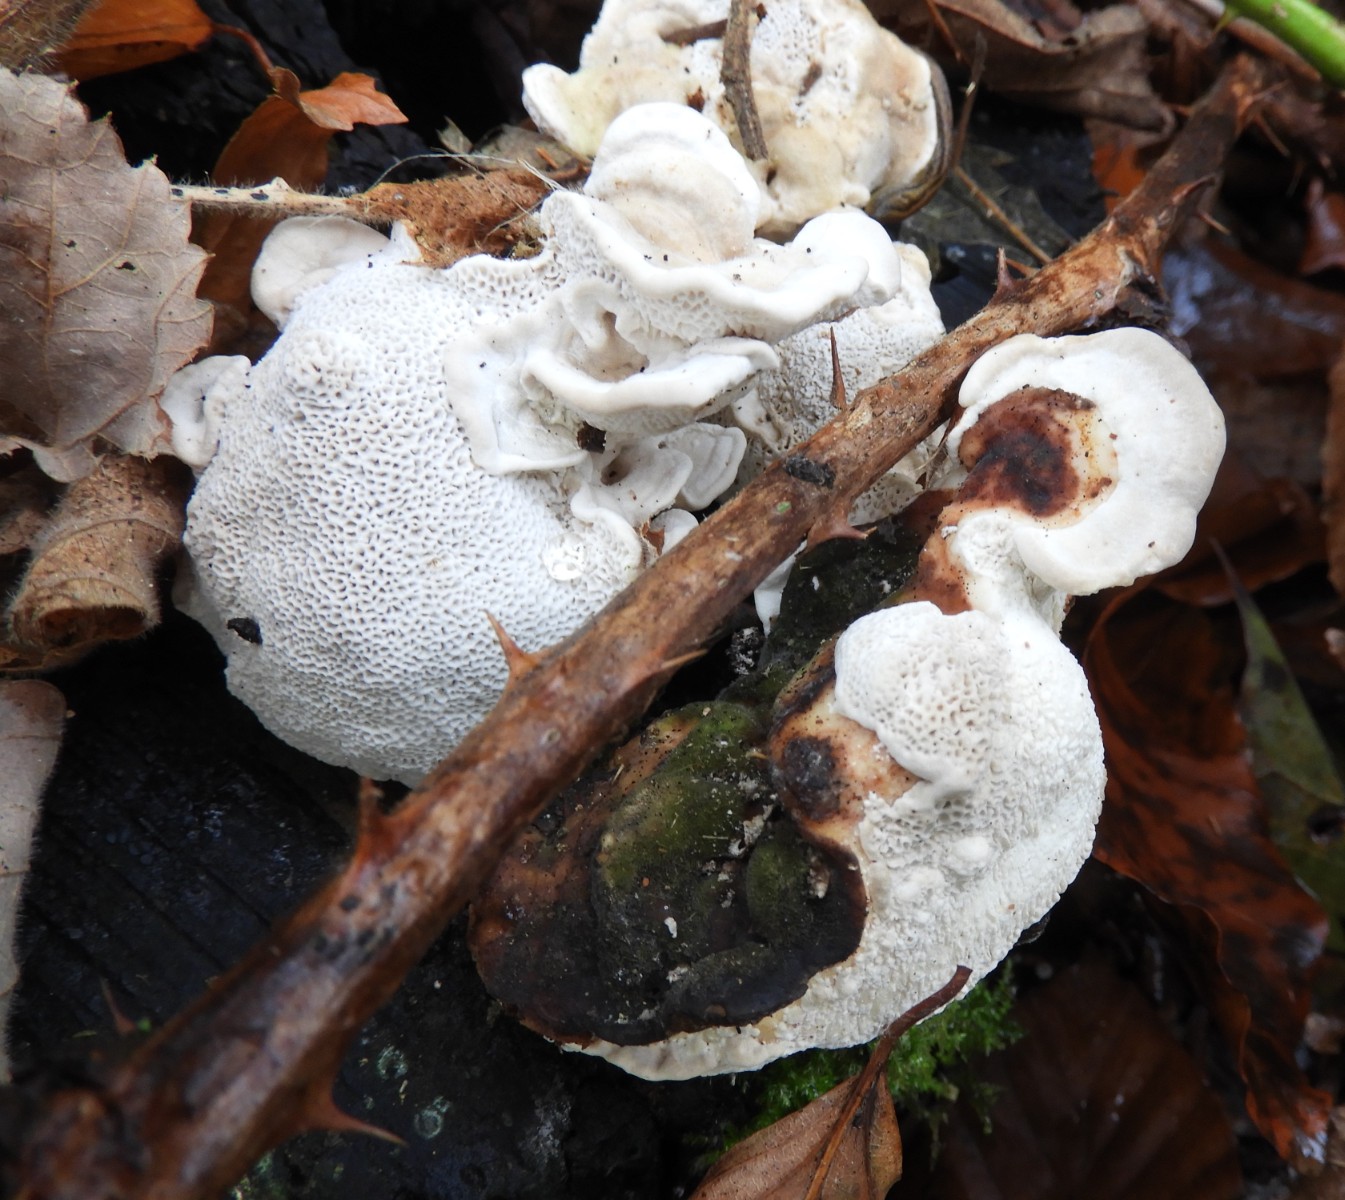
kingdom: Fungi
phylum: Basidiomycota
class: Agaricomycetes
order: Russulales
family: Bondarzewiaceae
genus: Heterobasidion
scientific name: Heterobasidion annosum
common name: almindelig rodfordærver
